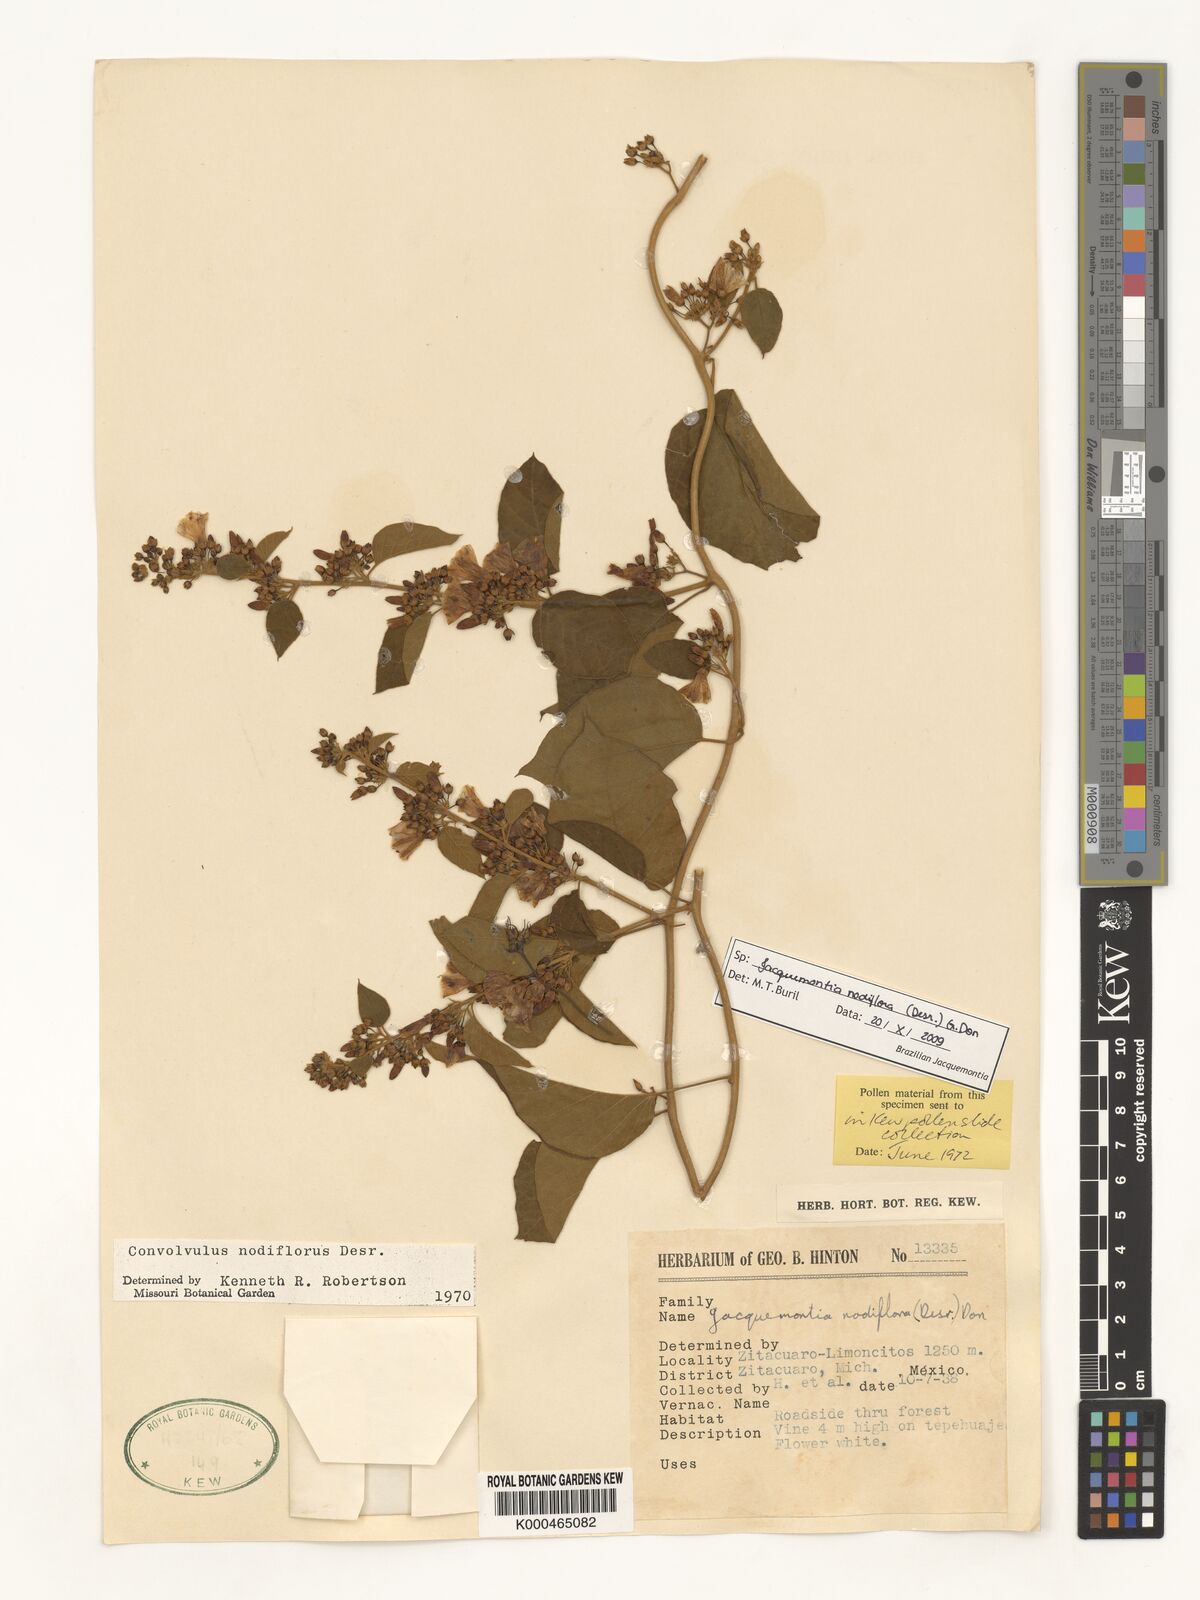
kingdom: Plantae
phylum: Tracheophyta
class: Magnoliopsida
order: Solanales
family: Convolvulaceae
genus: Jacquemontia
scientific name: Jacquemontia nodiflora
